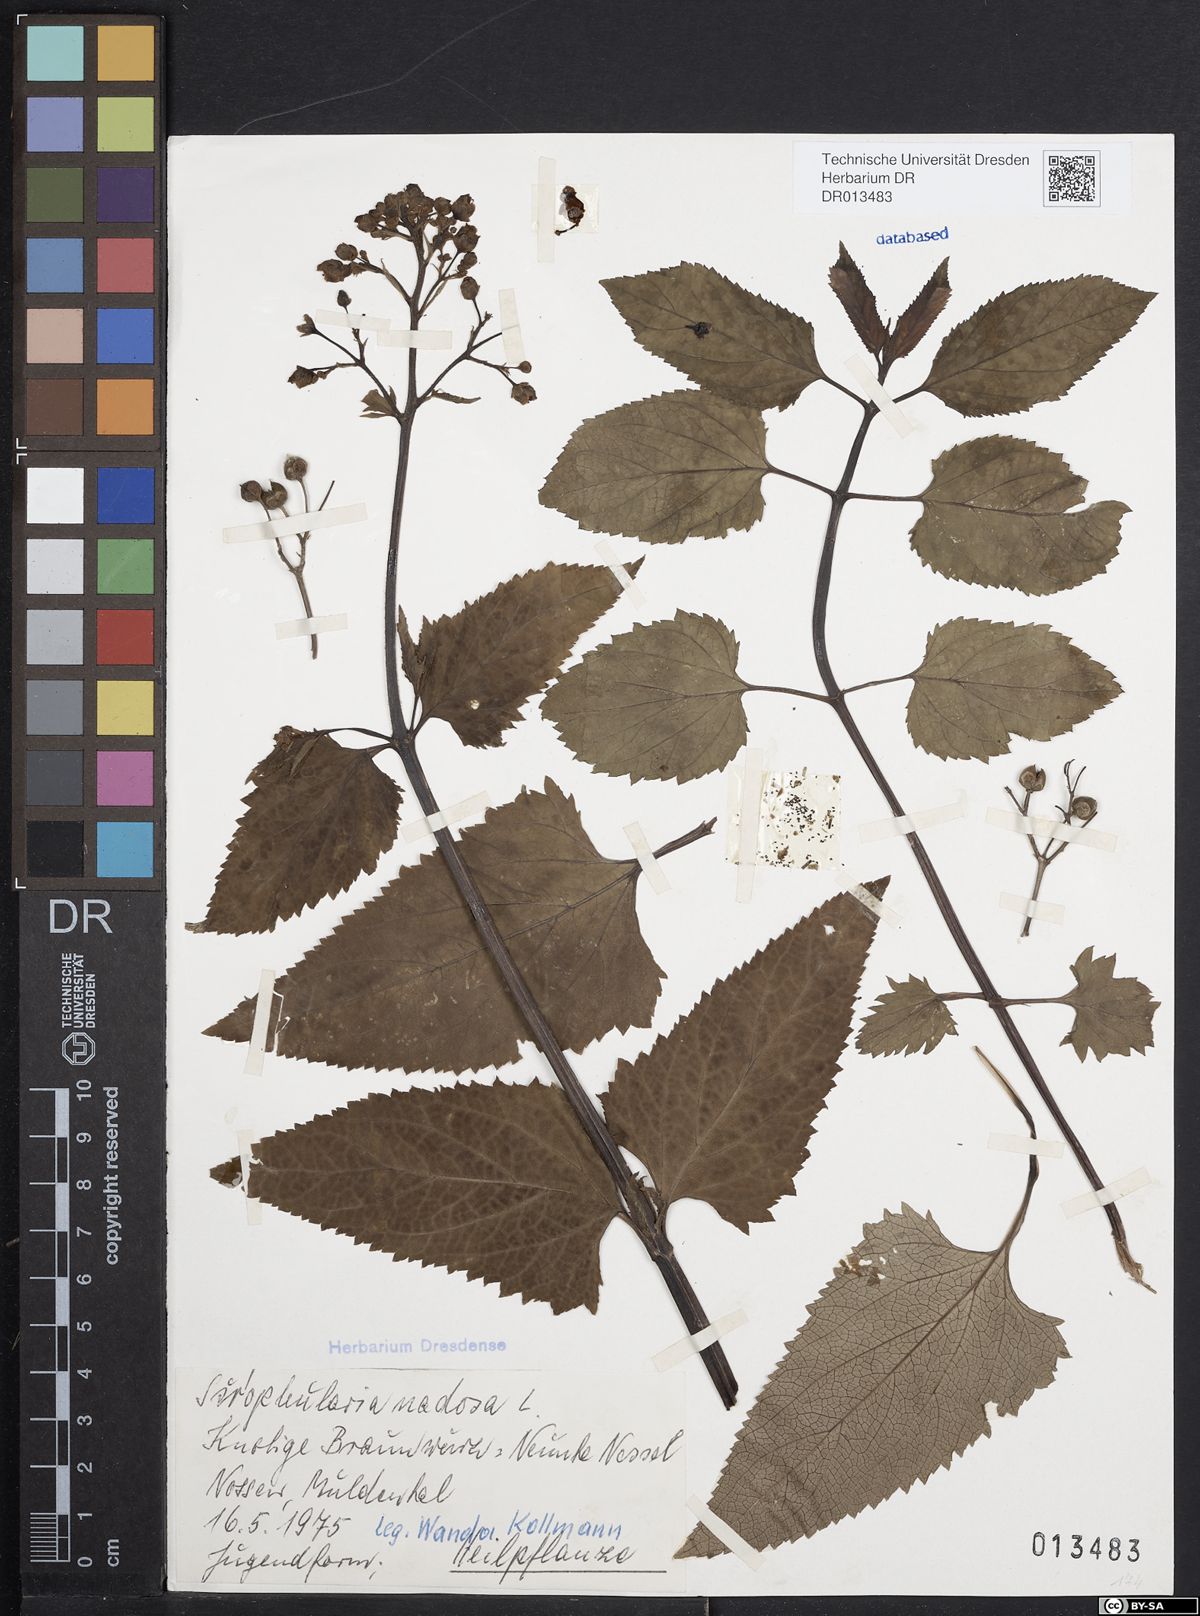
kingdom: Plantae
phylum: Tracheophyta
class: Magnoliopsida
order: Lamiales
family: Scrophulariaceae
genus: Scrophularia
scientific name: Scrophularia nodosa
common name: Common figwort
